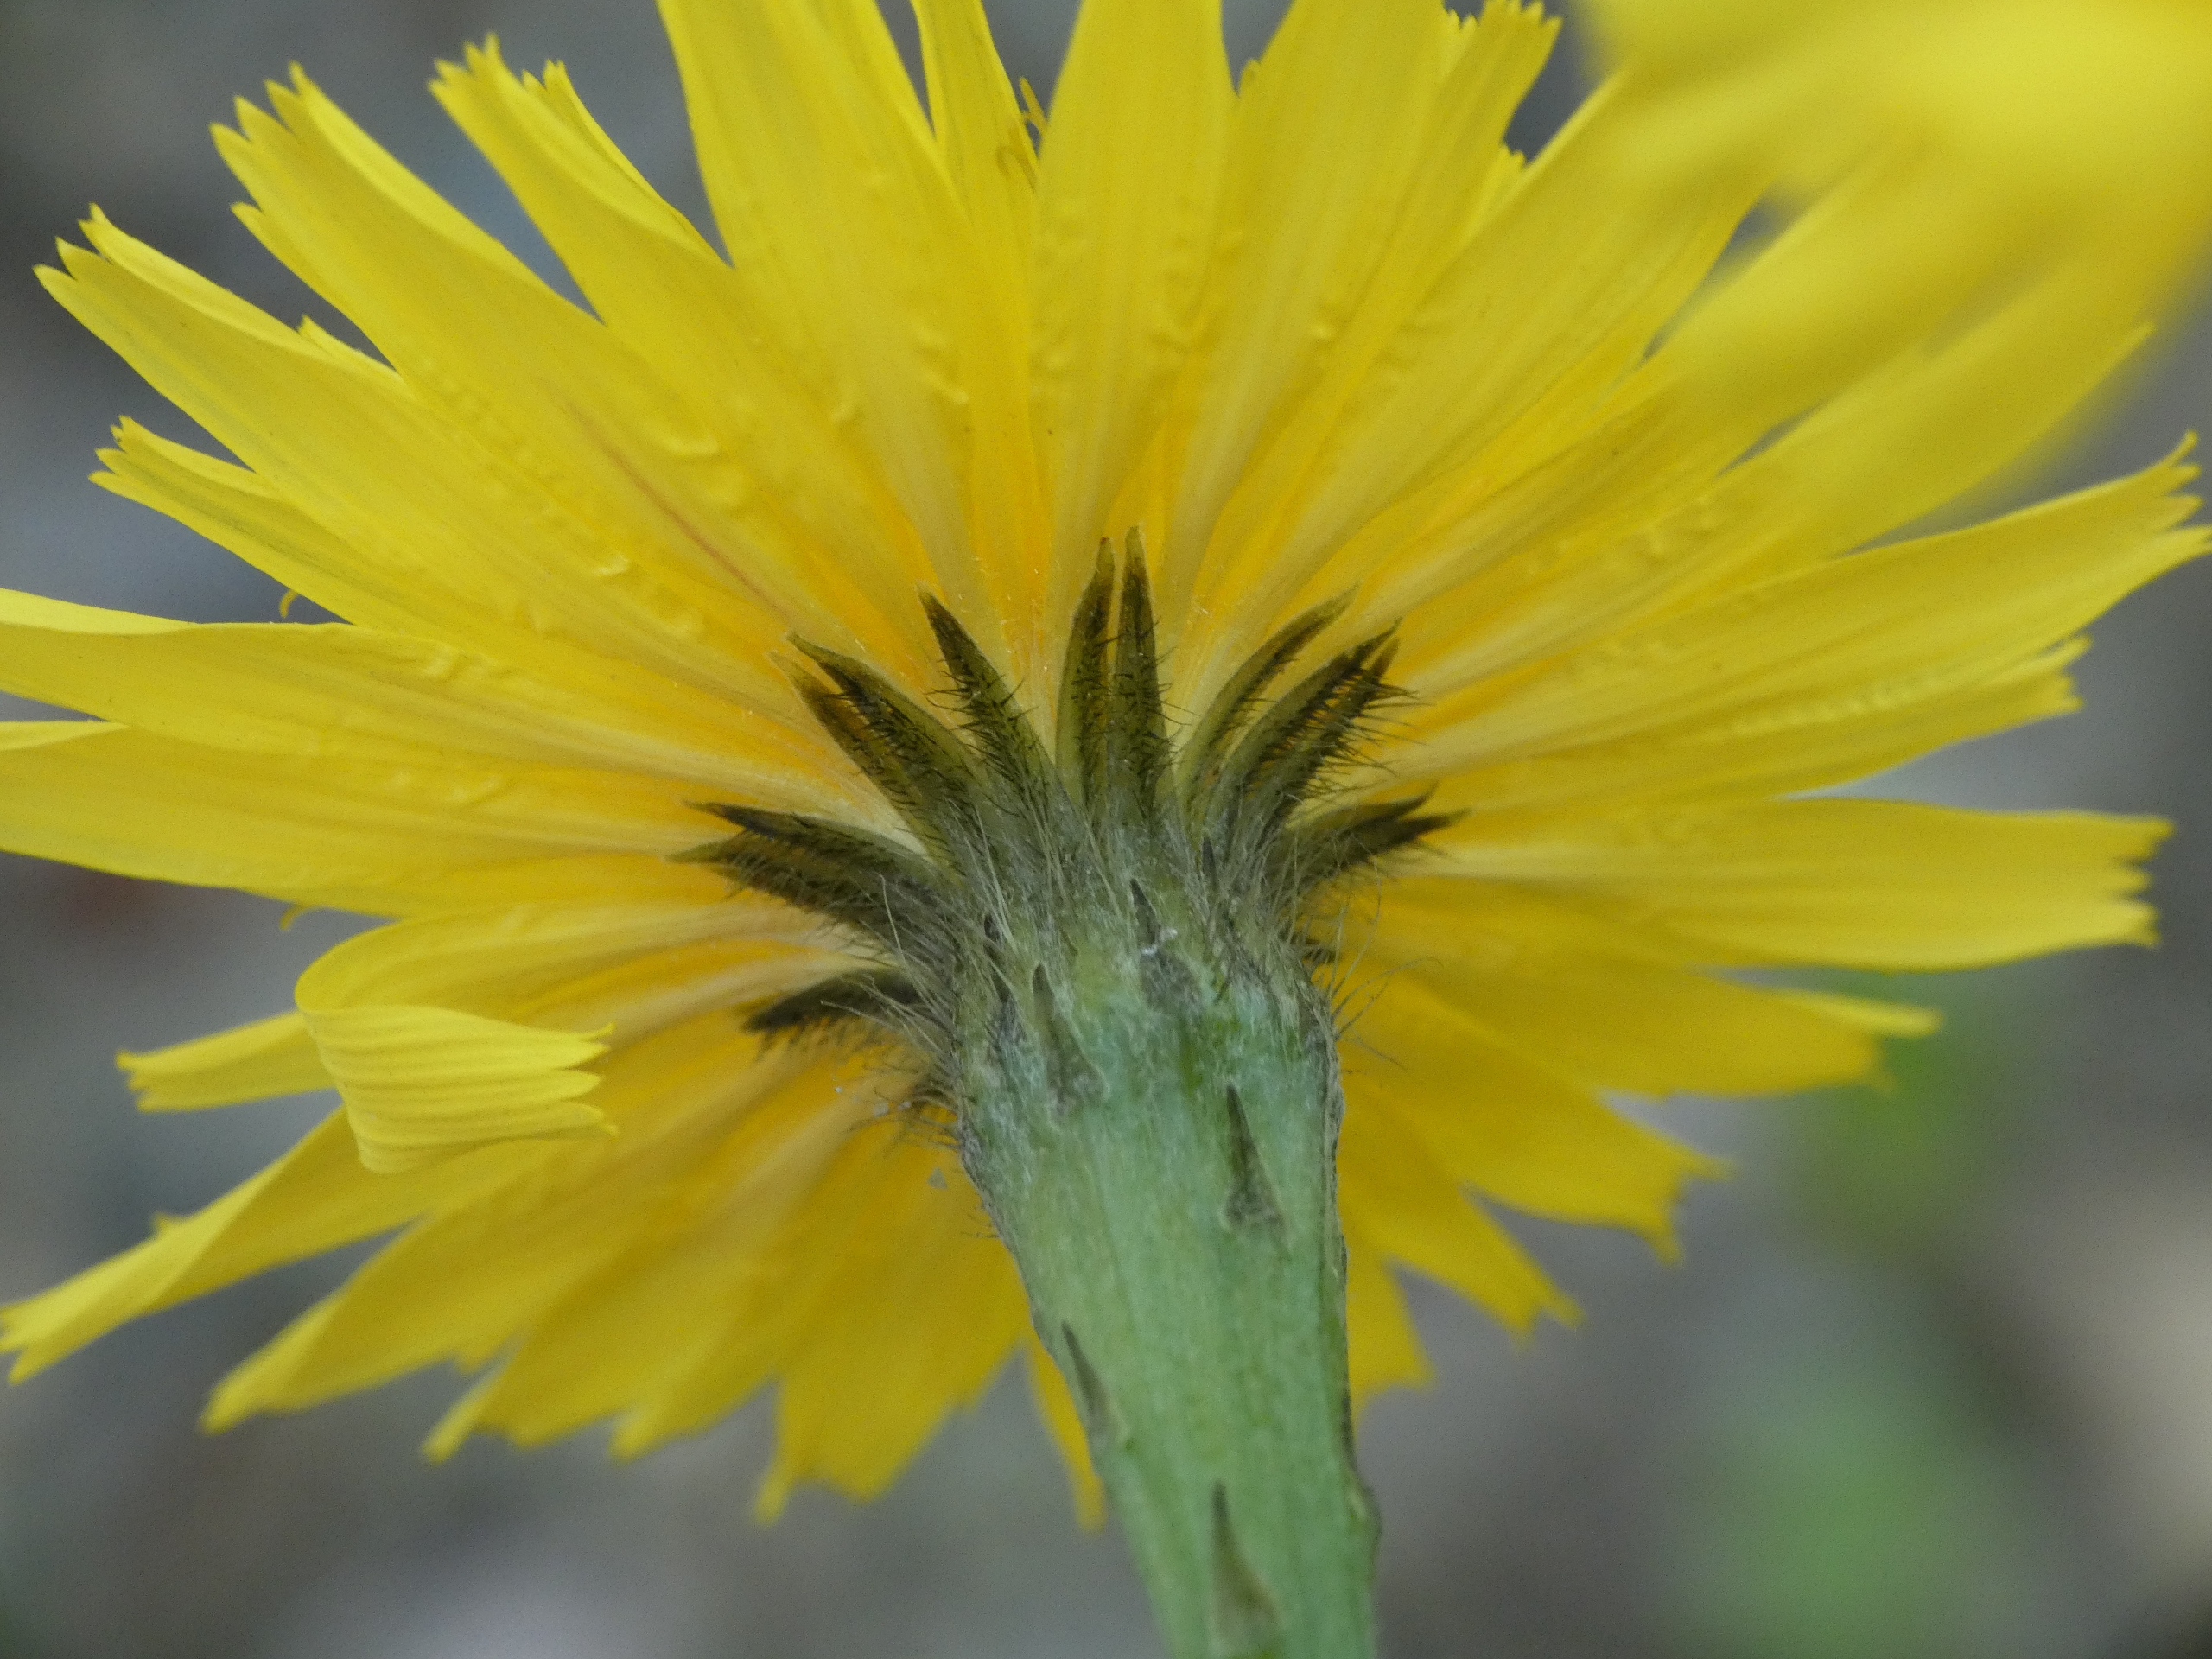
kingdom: Plantae
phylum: Tracheophyta
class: Magnoliopsida
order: Asterales
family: Asteraceae
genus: Scorzoneroides
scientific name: Scorzoneroides autumnalis
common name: Høst-borst
